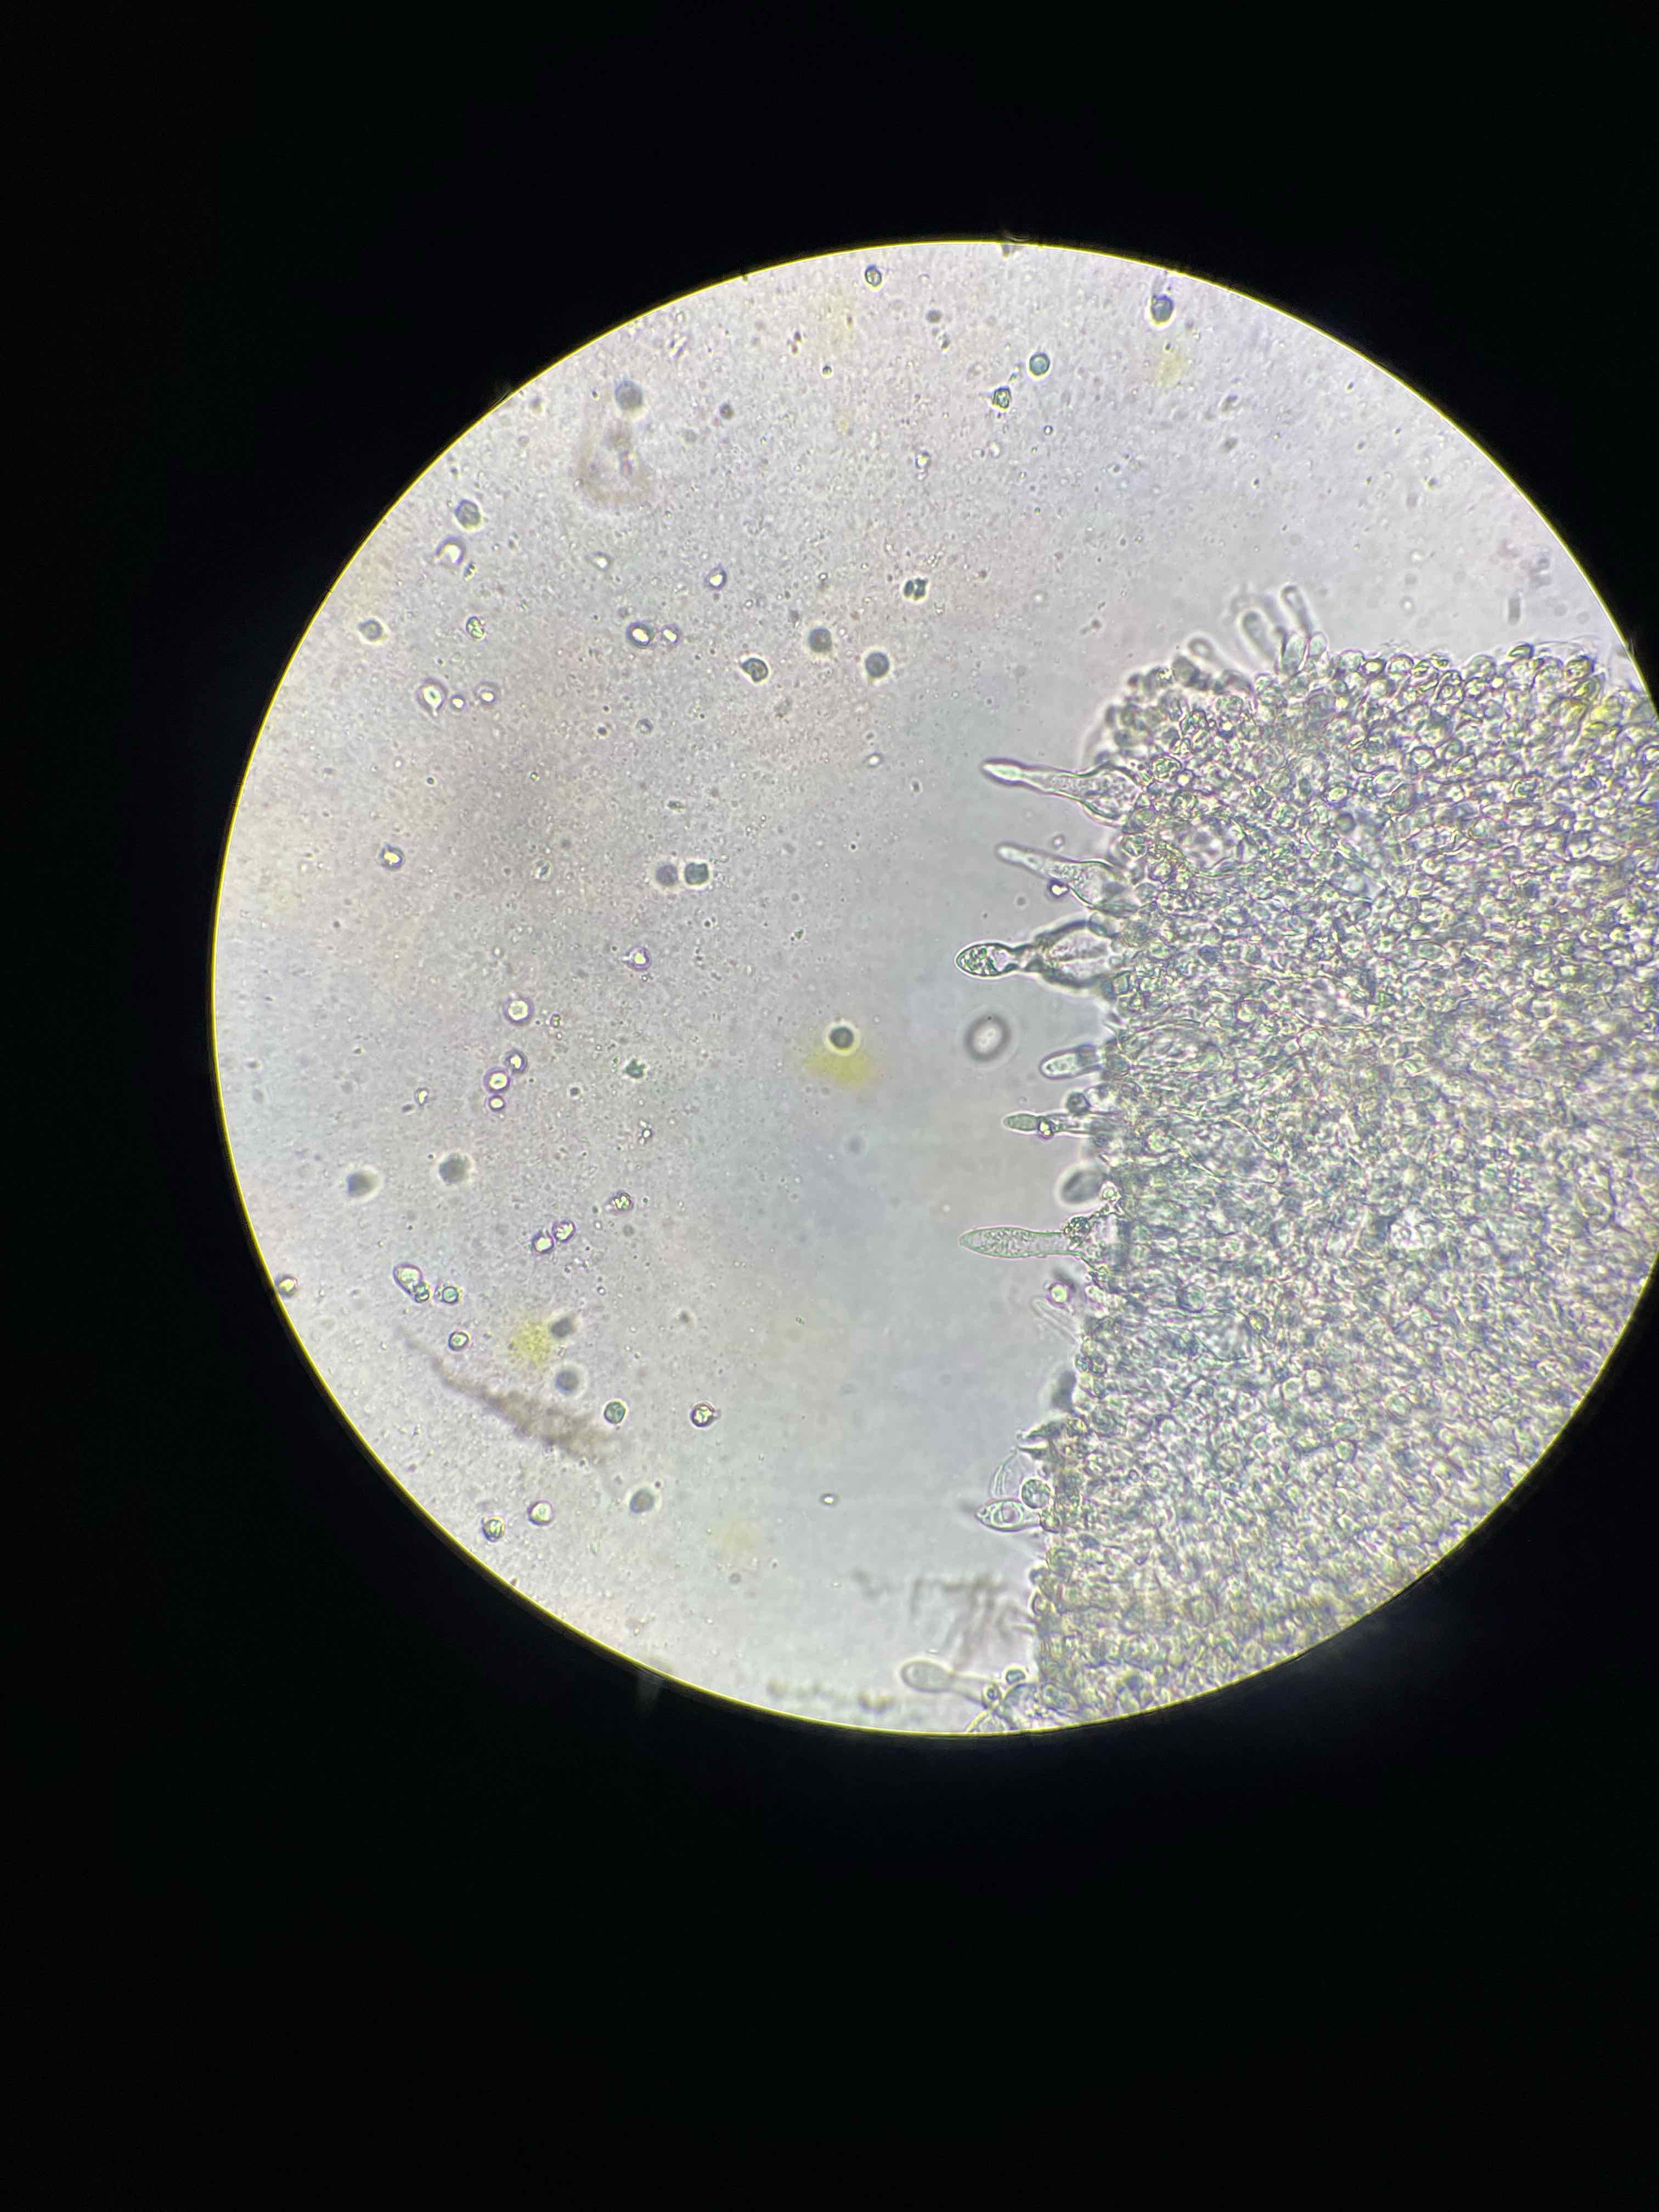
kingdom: Fungi
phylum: Basidiomycota
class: Agaricomycetes
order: Agaricales
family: Tricholomataceae
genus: Mycenella
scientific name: Mycenella salicina
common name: glatsporet dughat
